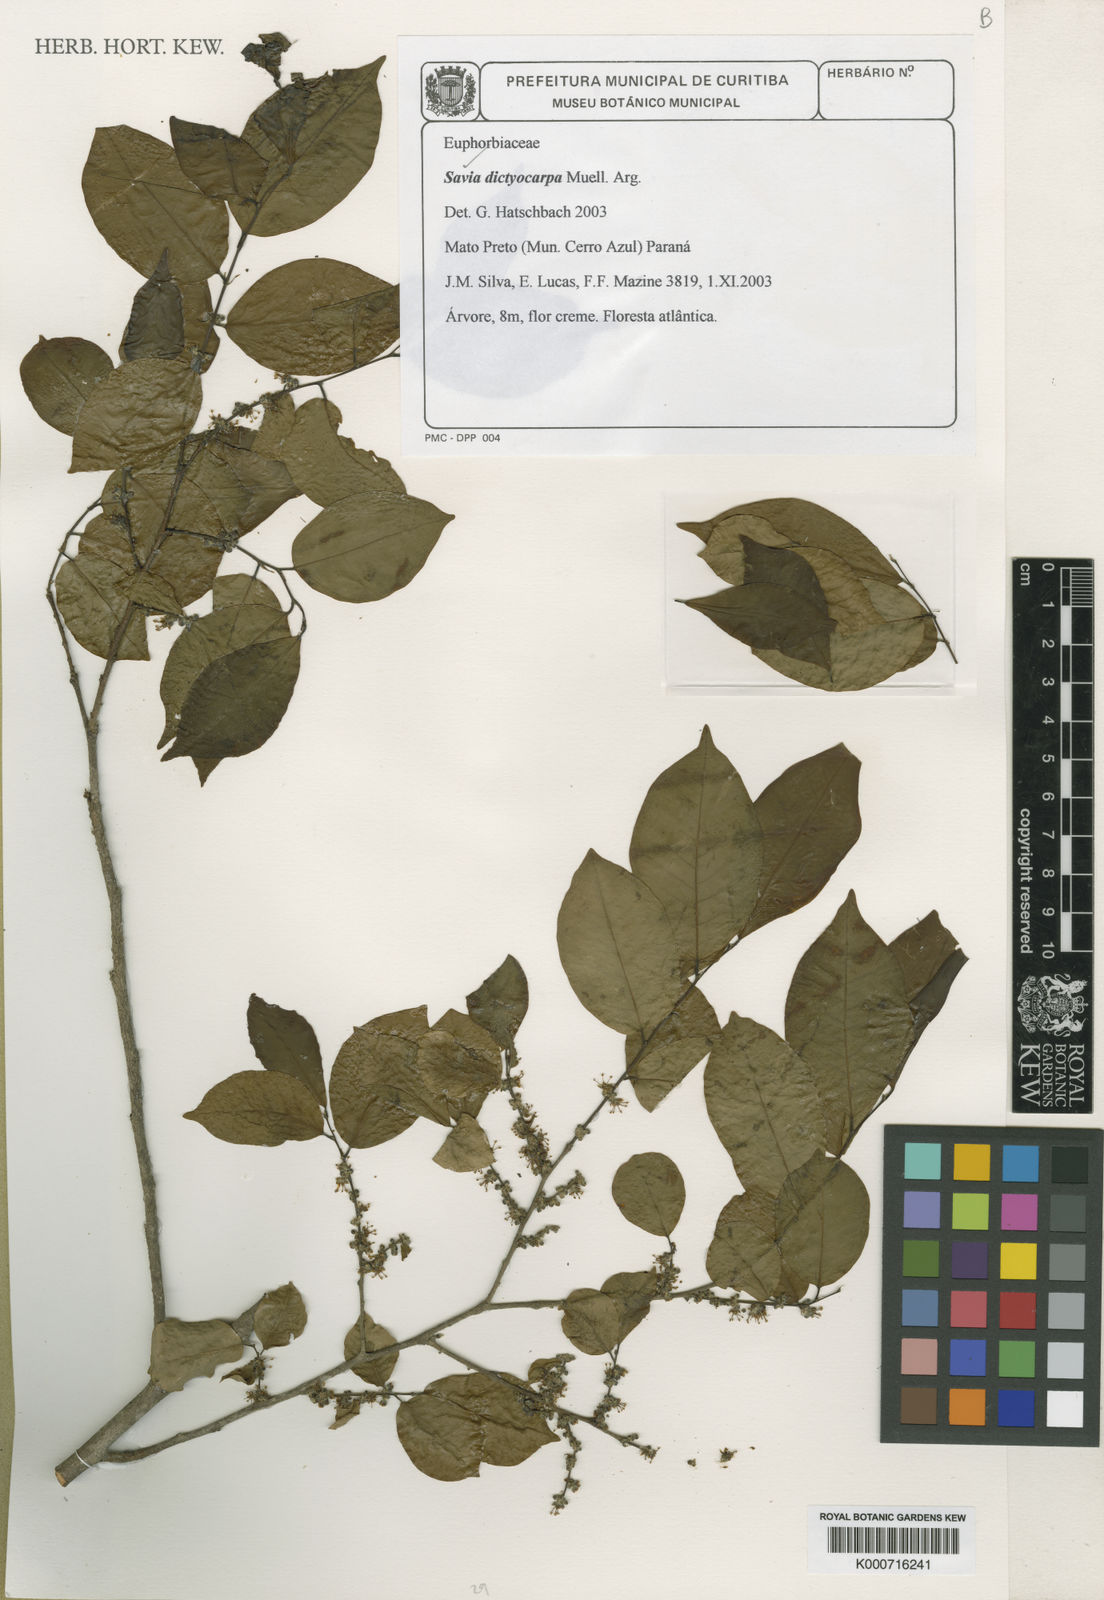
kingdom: Plantae
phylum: Tracheophyta
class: Magnoliopsida
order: Malpighiales
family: Phyllanthaceae
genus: Savia
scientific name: Savia
